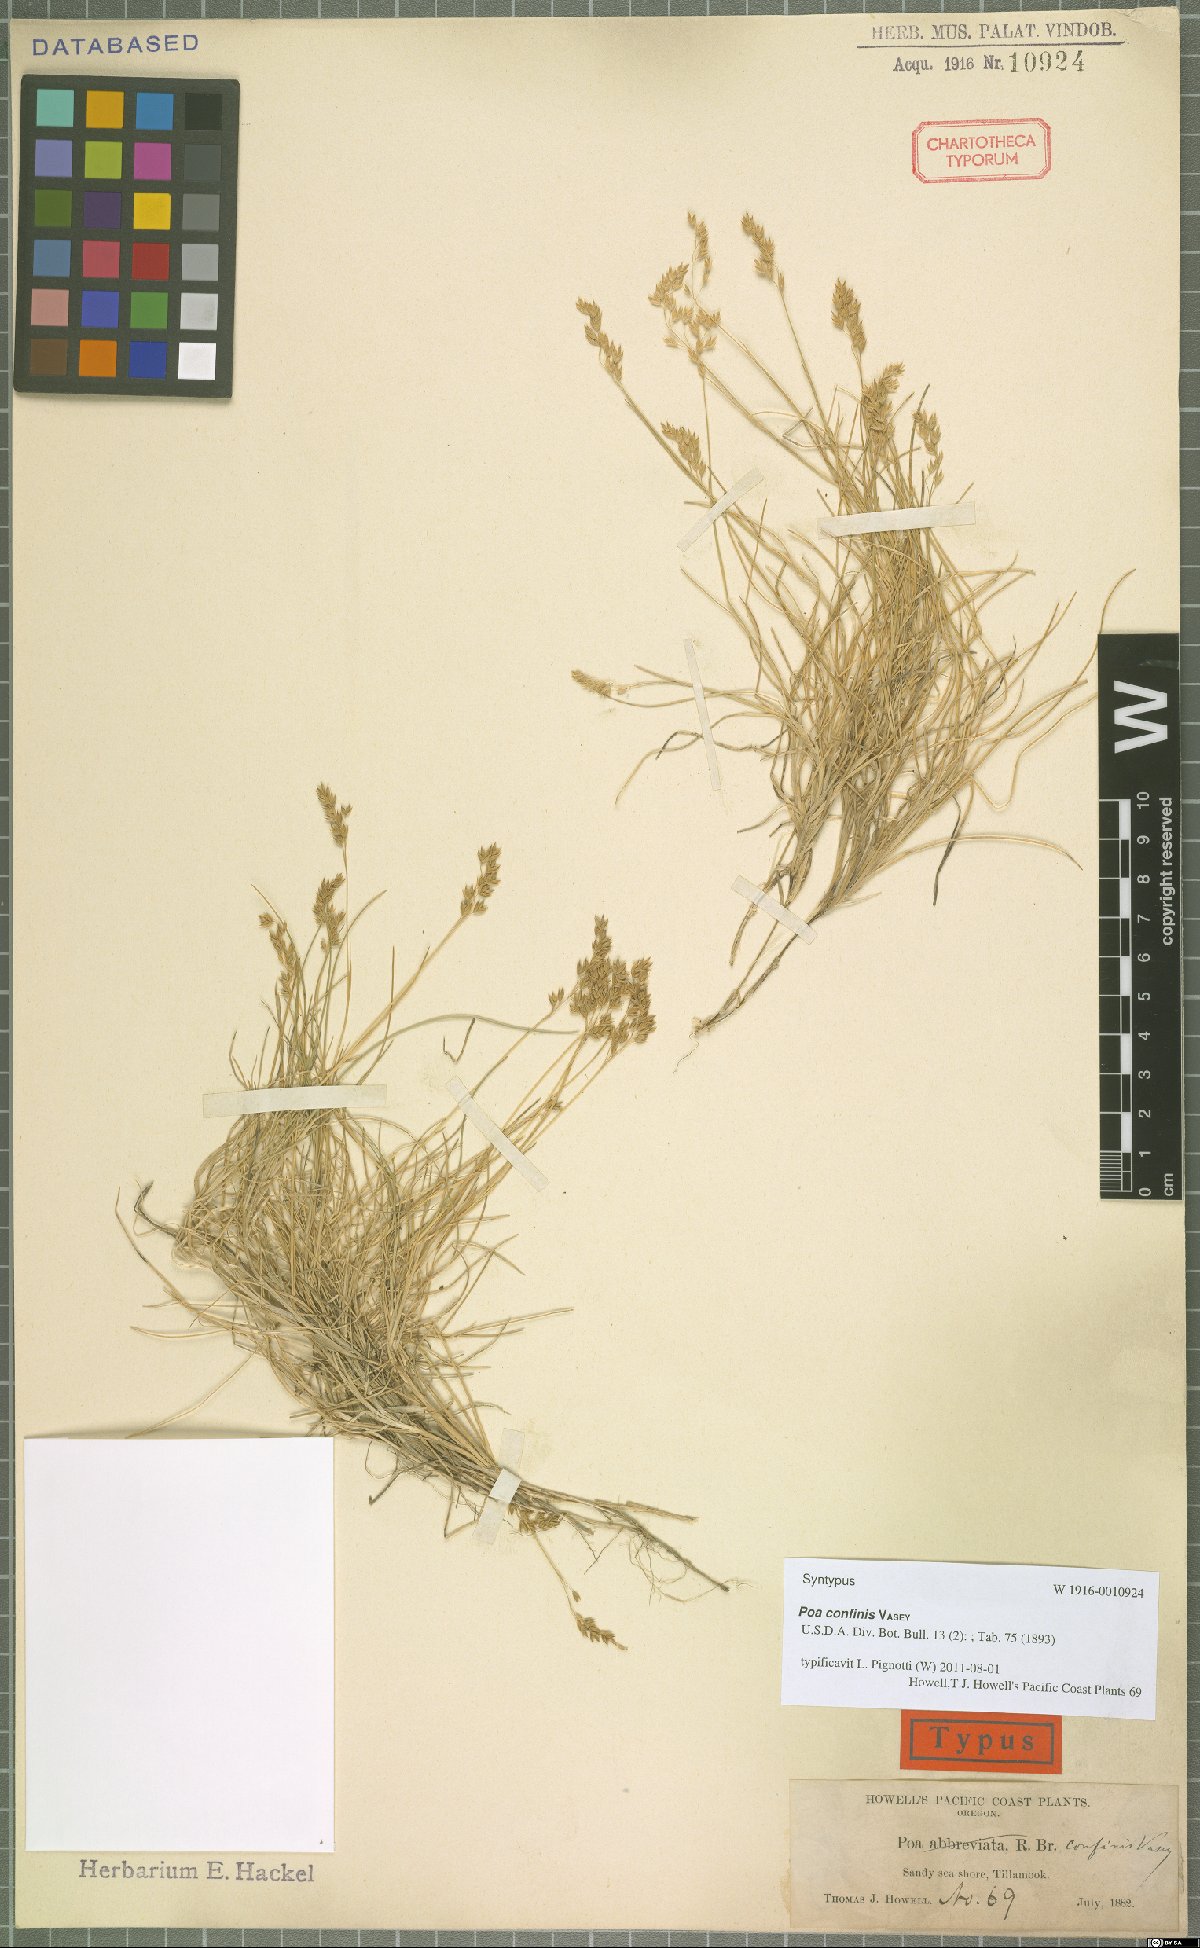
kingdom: Plantae
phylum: Tracheophyta
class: Liliopsida
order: Poales
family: Poaceae
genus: Poa
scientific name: Poa confinis
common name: Beach bluegrass
